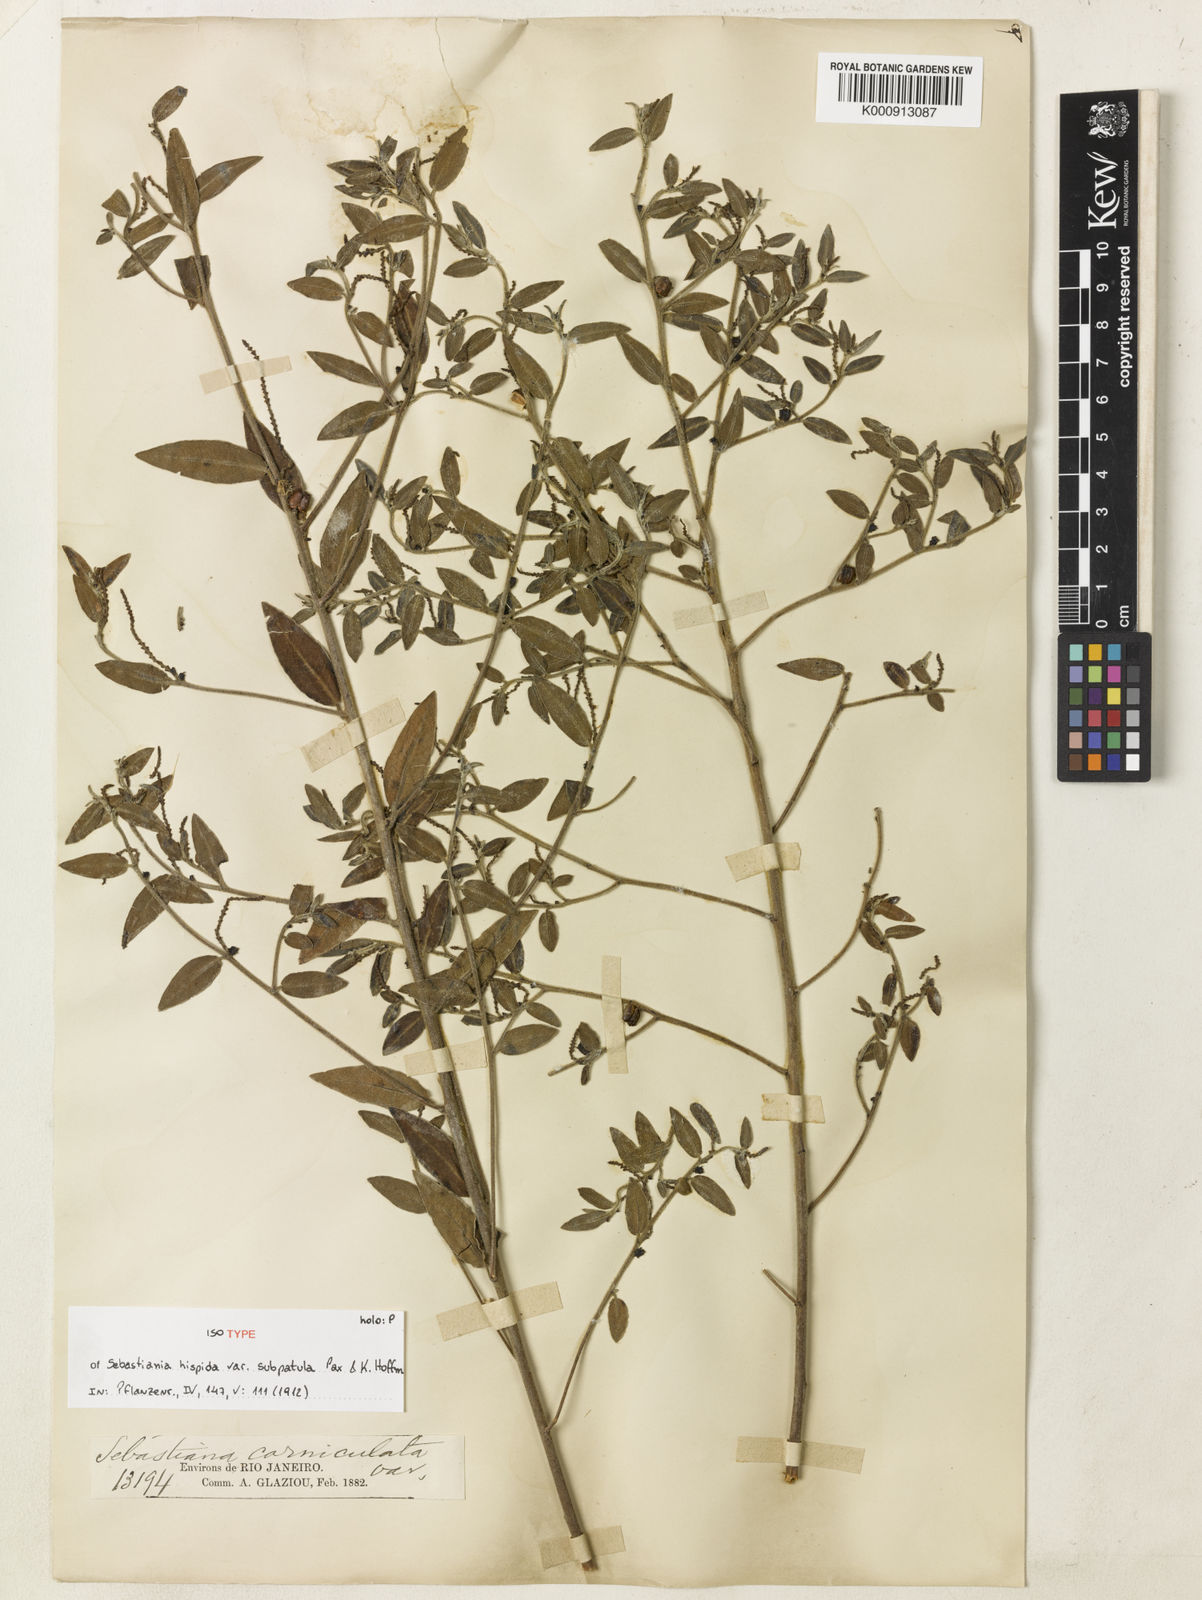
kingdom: Plantae
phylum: Tracheophyta
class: Magnoliopsida
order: Malpighiales
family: Euphorbiaceae
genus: Microstachys
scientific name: Microstachys corniculata
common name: Hato tejas
